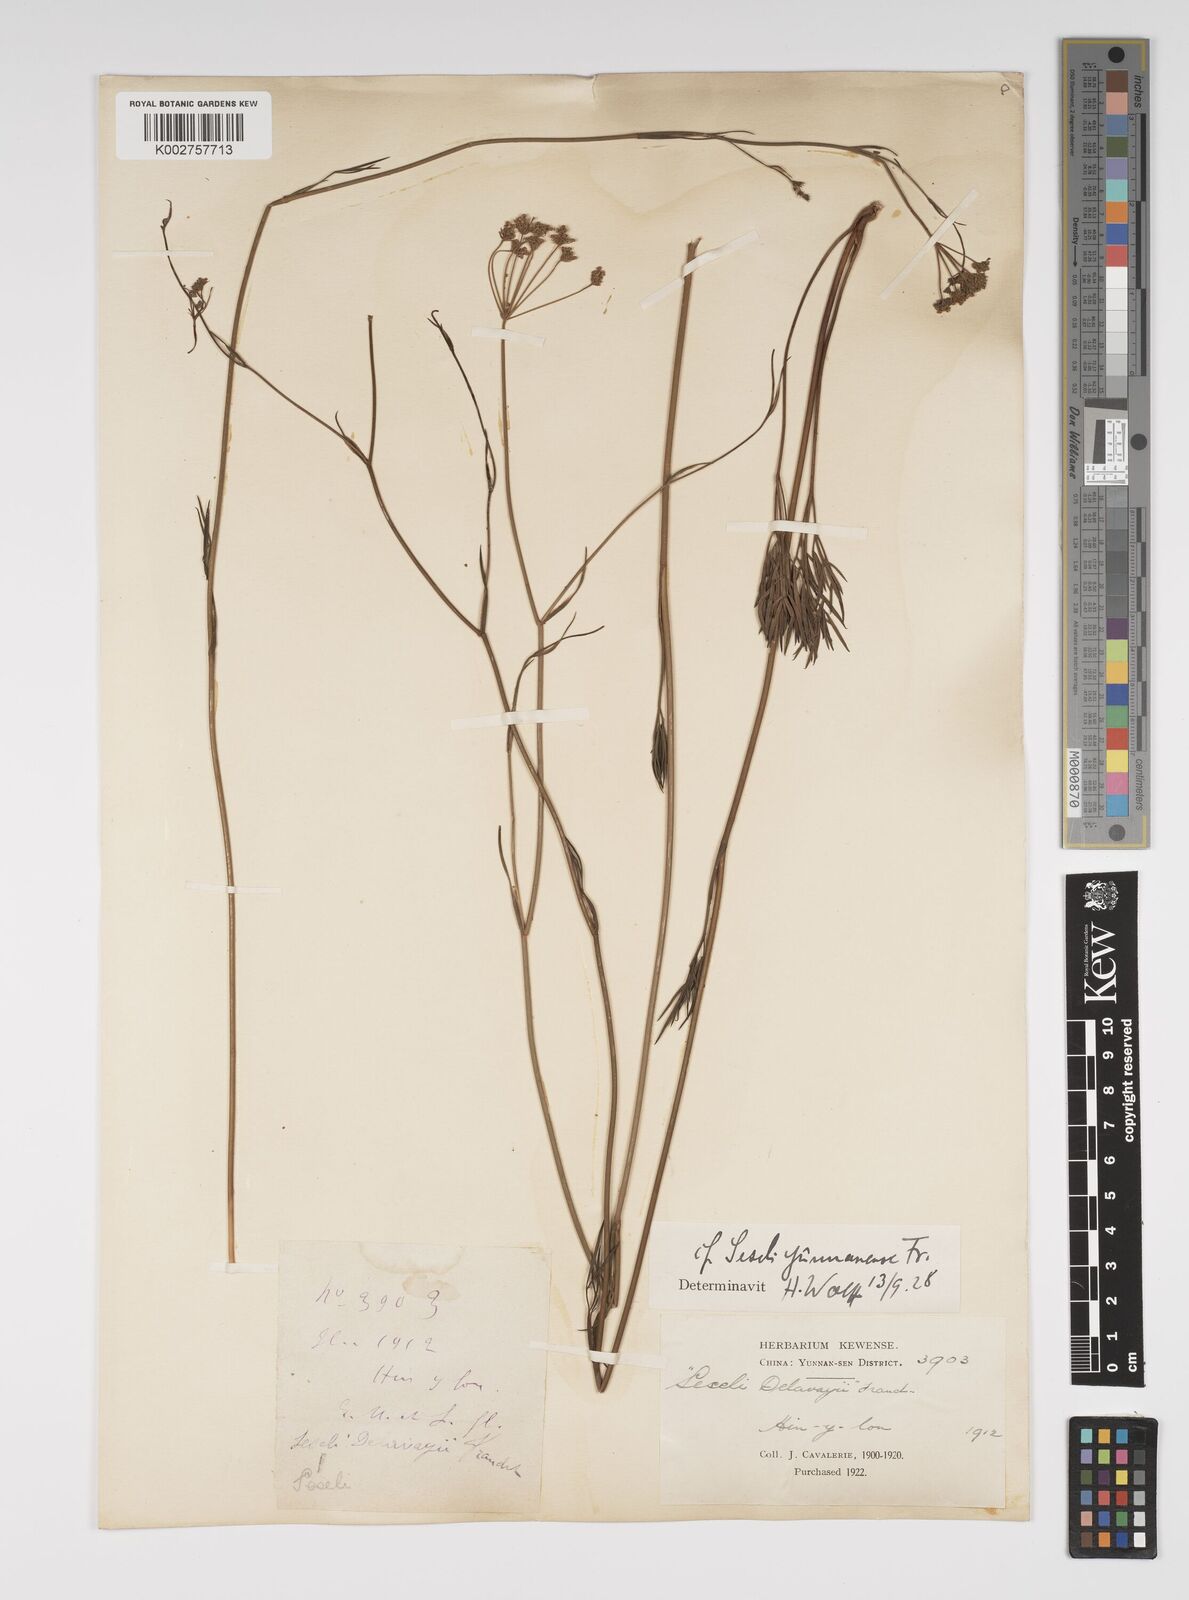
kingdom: Plantae
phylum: Tracheophyta
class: Magnoliopsida
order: Apiales
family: Apiaceae
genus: Seseli
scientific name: Seseli yunnanense
